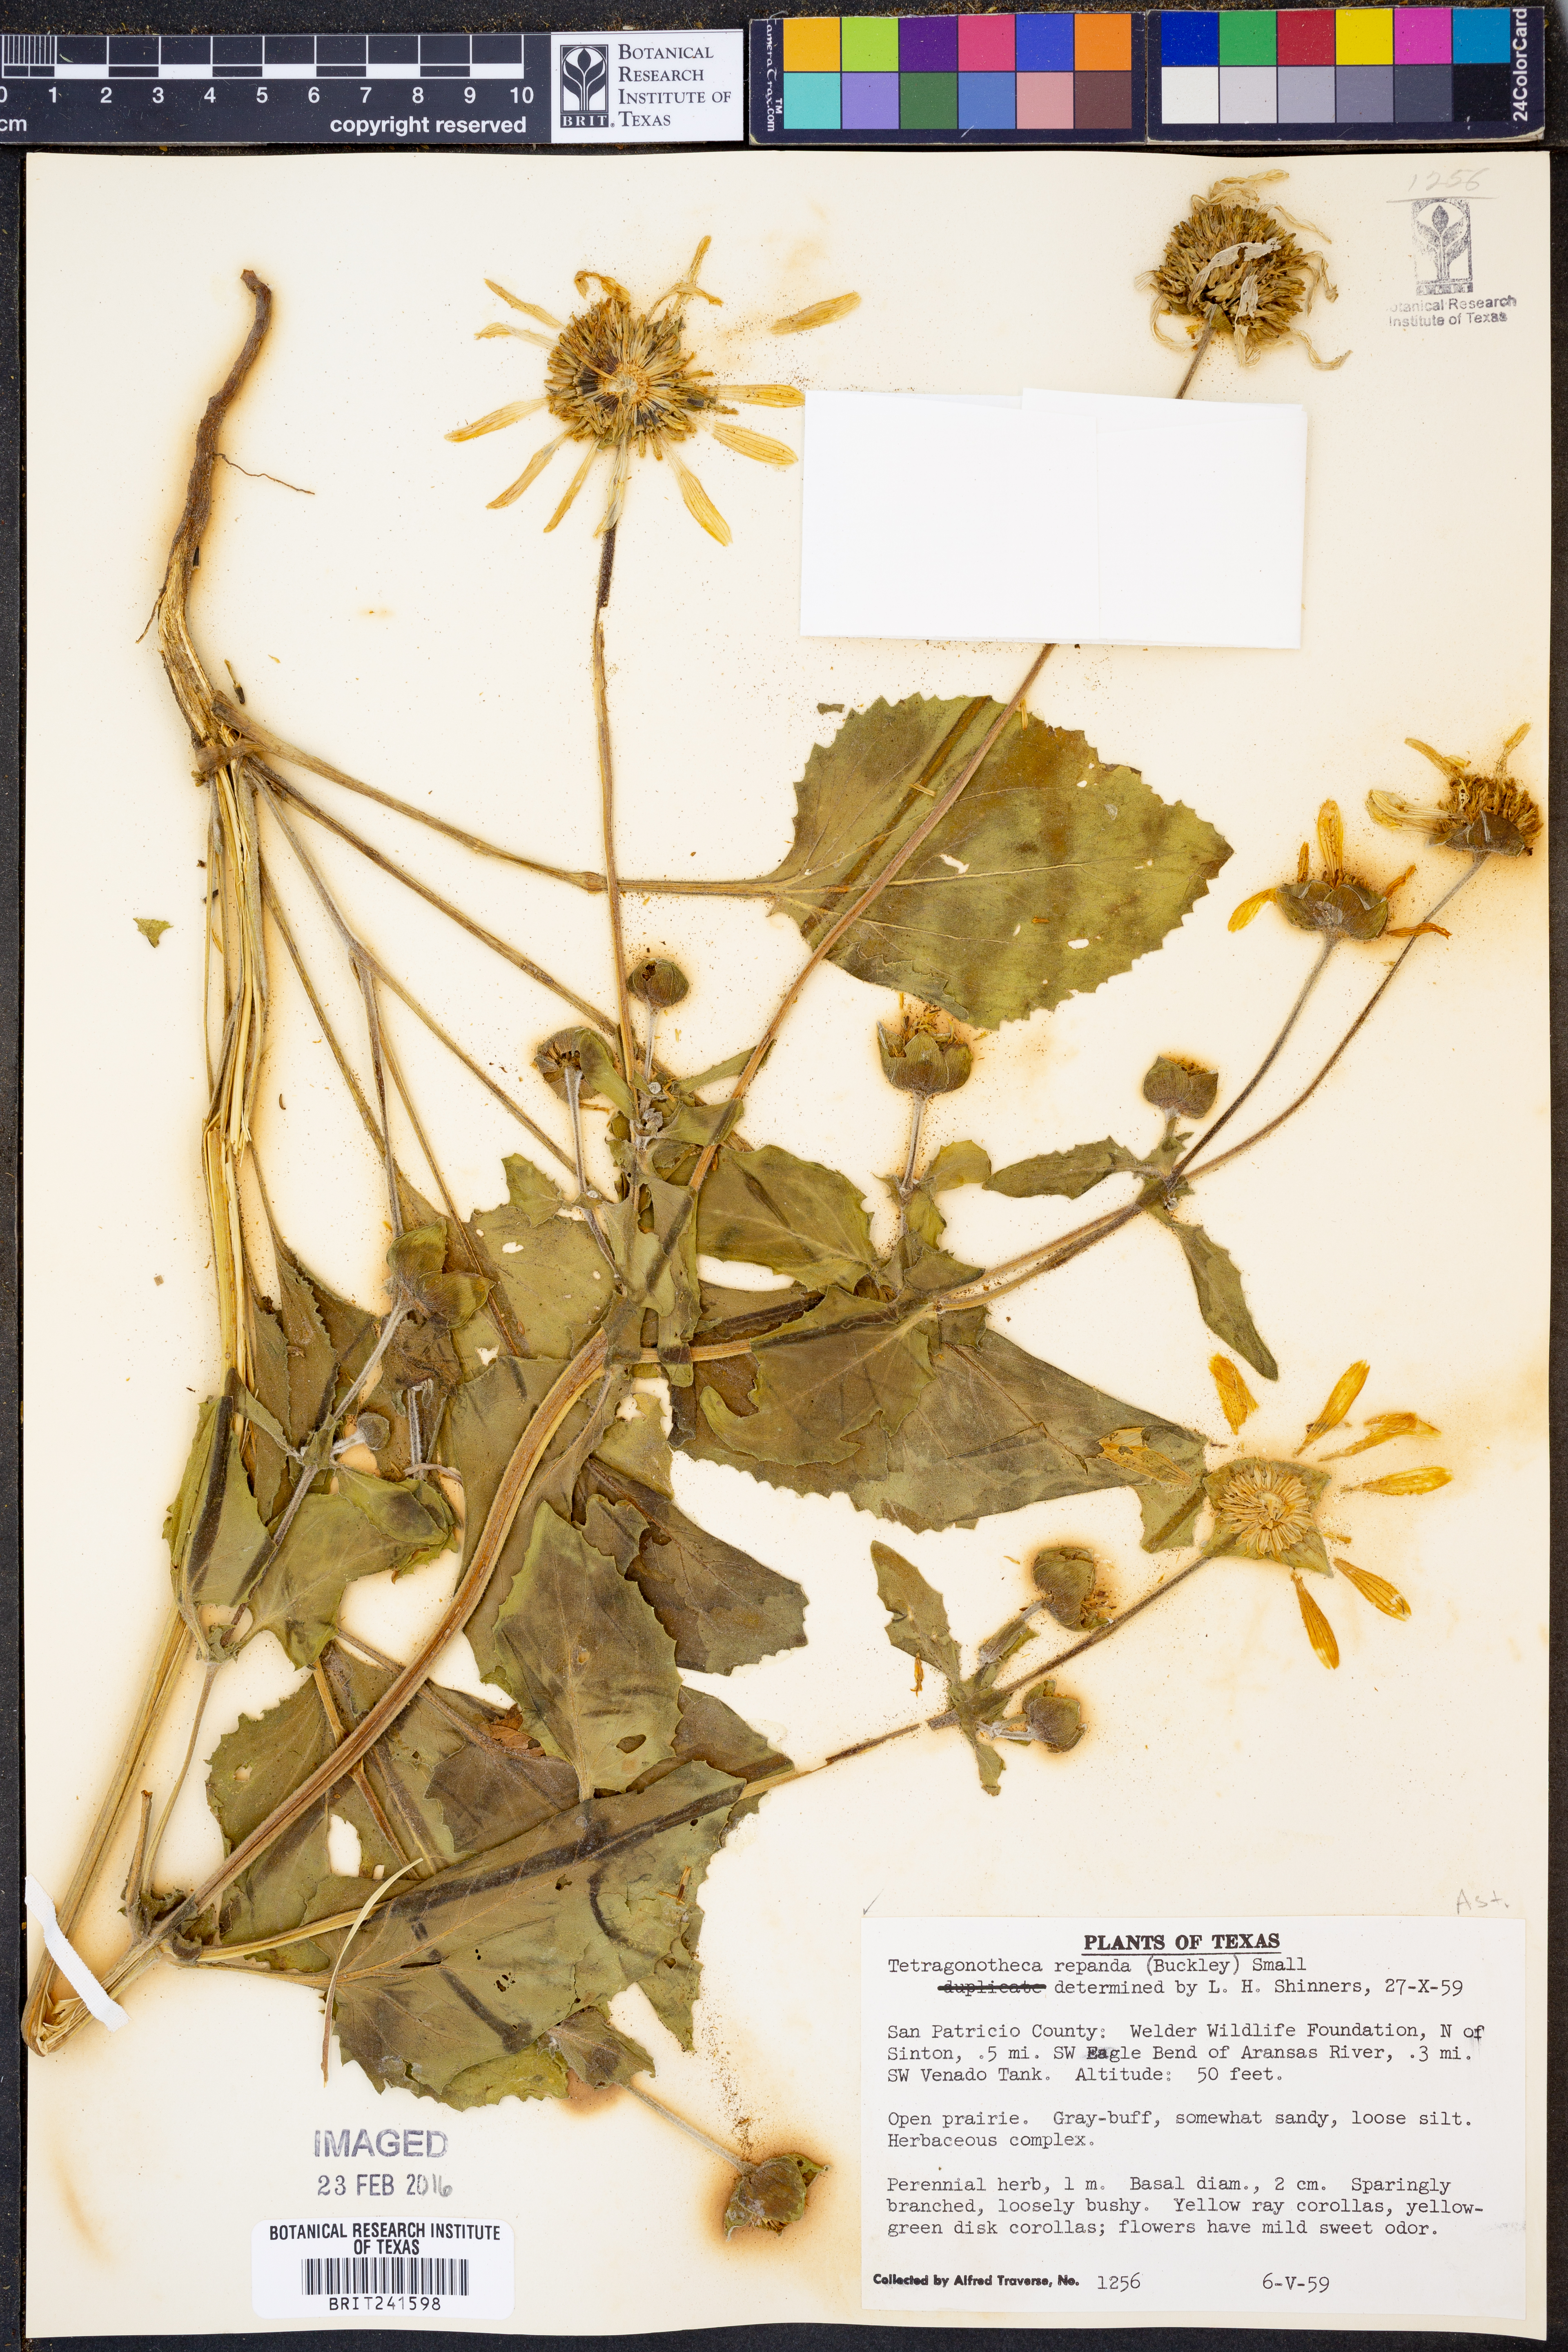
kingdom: Plantae
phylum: Tracheophyta
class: Magnoliopsida
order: Asterales
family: Asteraceae
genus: Tetragonotheca
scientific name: Tetragonotheca repanda
